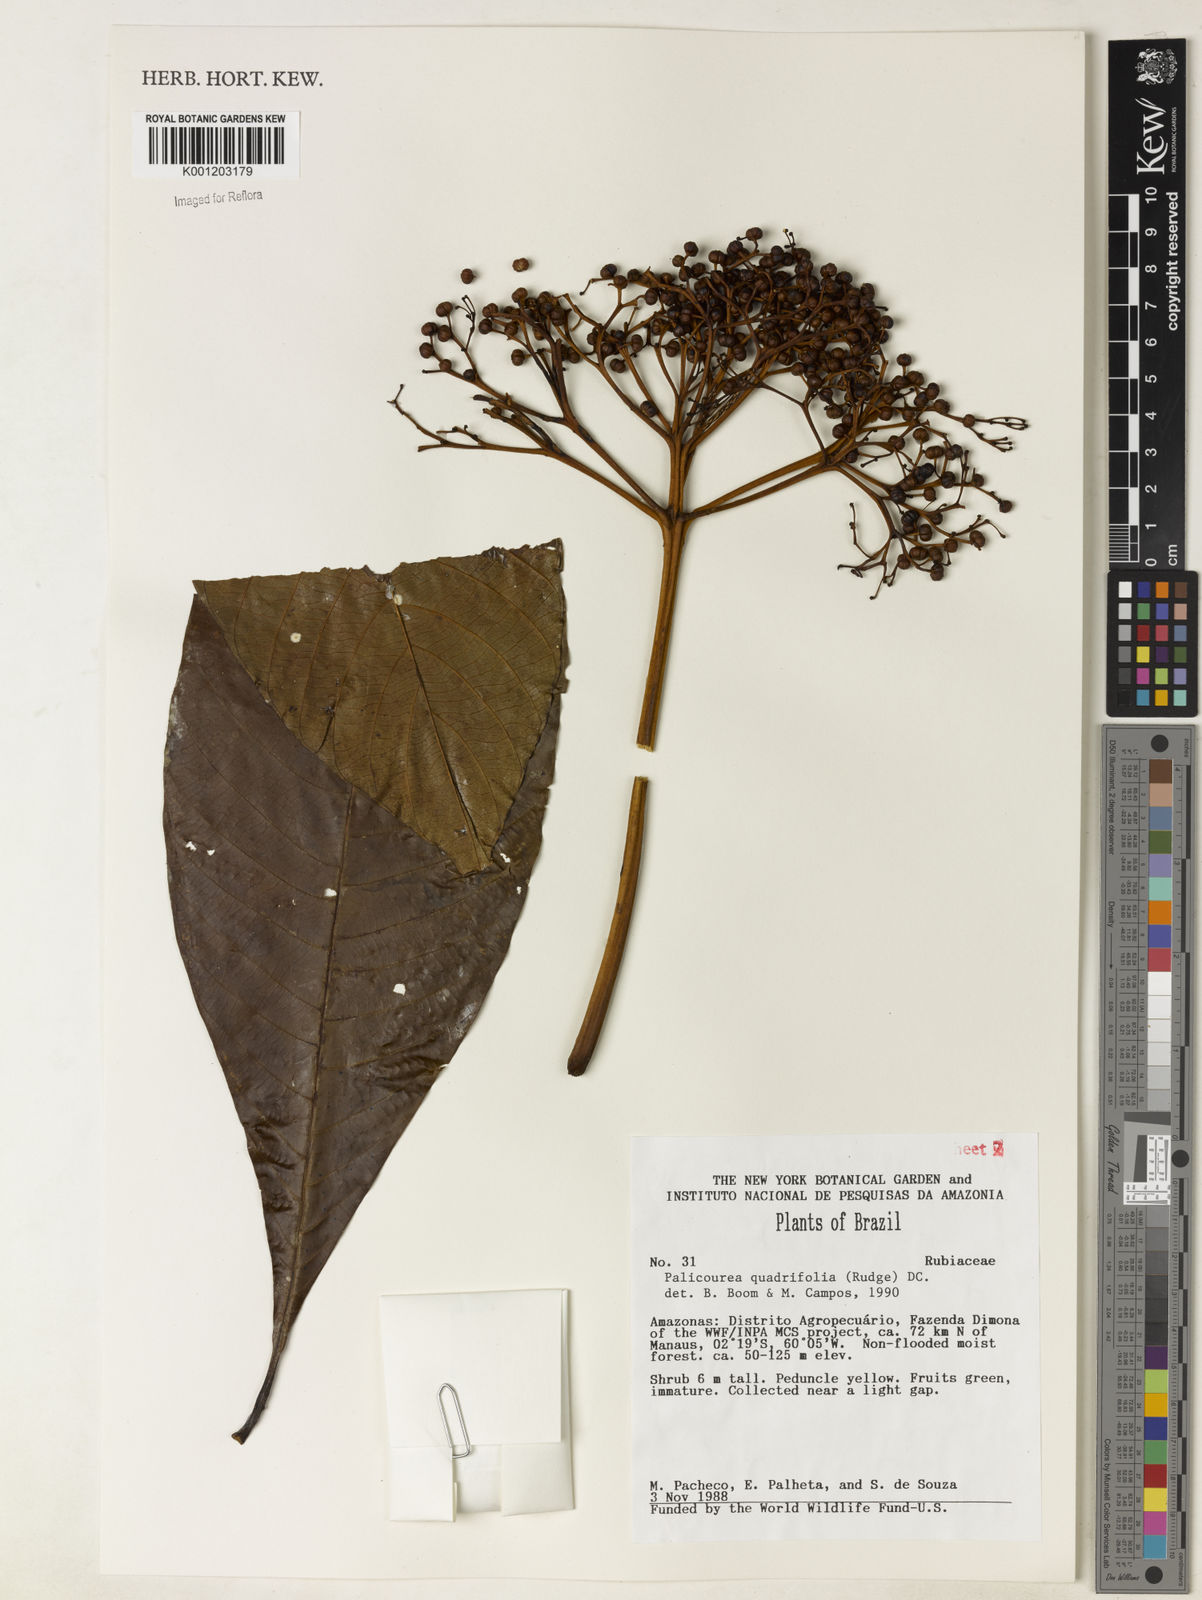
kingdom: Plantae
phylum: Tracheophyta
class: Magnoliopsida
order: Gentianales
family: Rubiaceae
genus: Palicourea
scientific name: Palicourea quadrifolia
